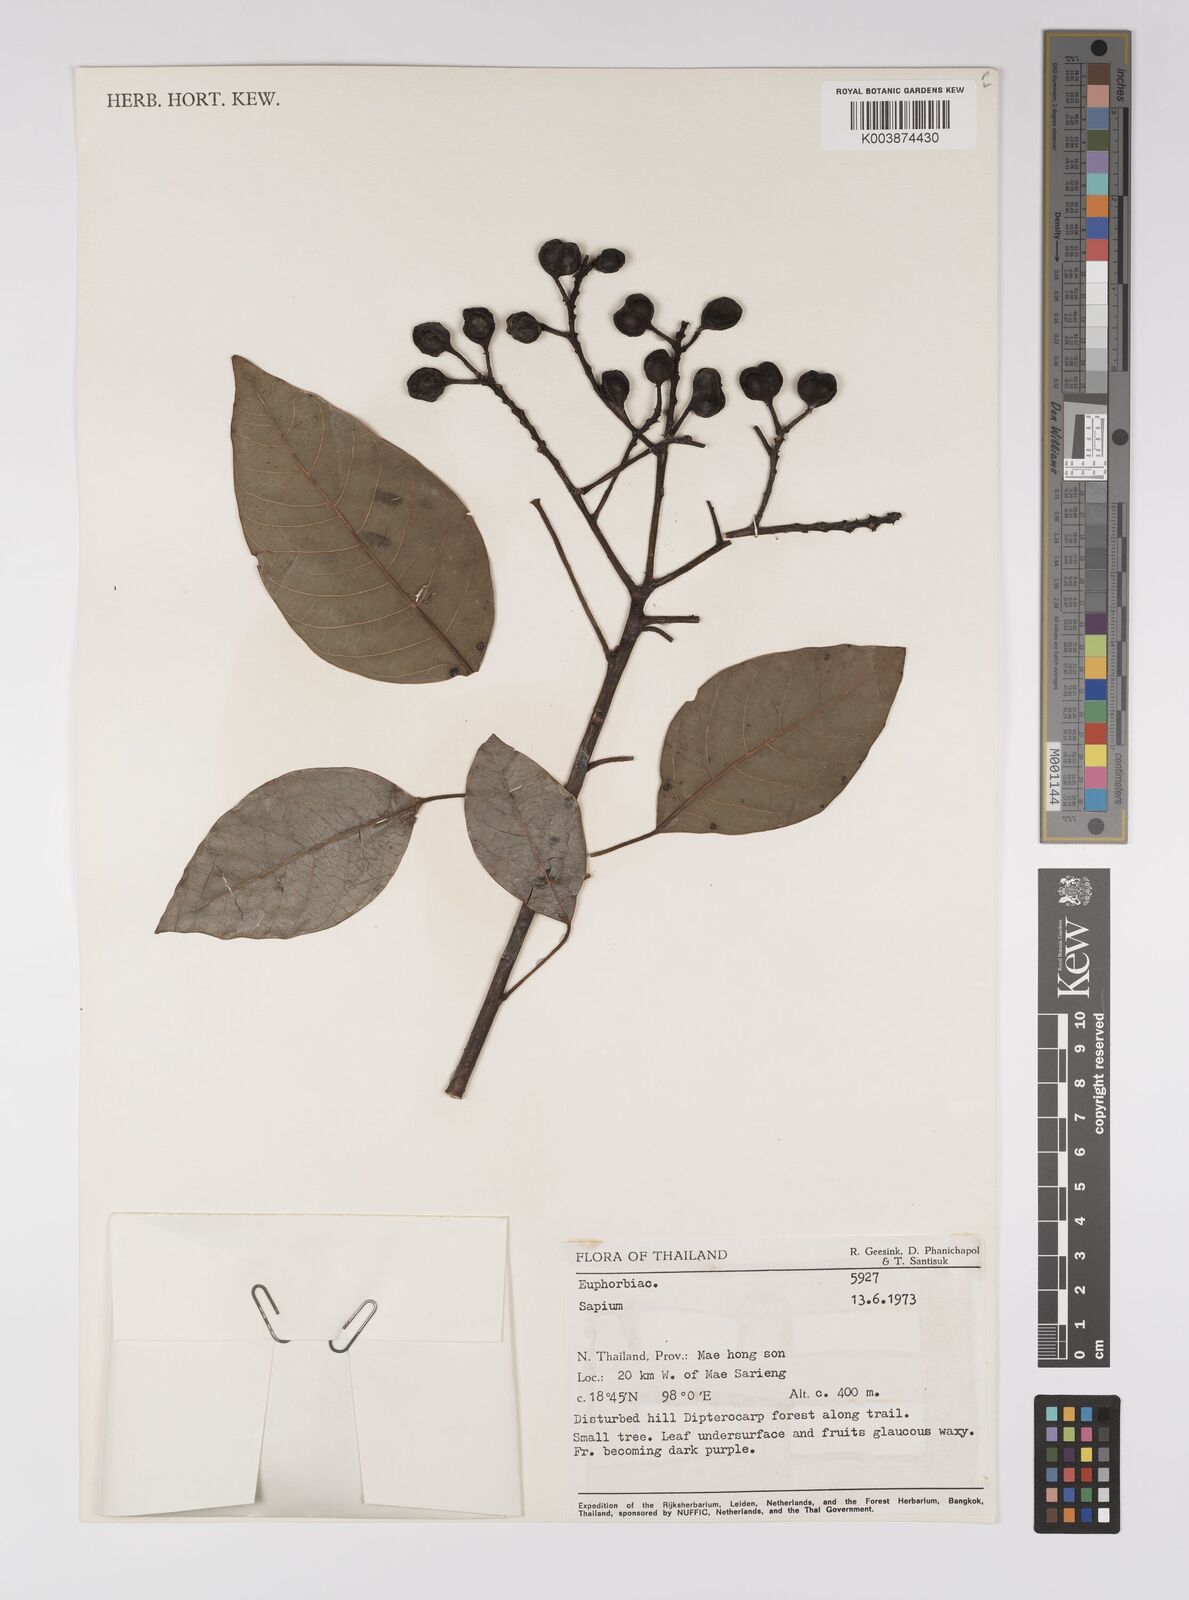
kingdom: Plantae
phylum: Tracheophyta
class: Magnoliopsida
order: Malpighiales
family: Euphorbiaceae
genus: Balakata
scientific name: Balakata baccata
